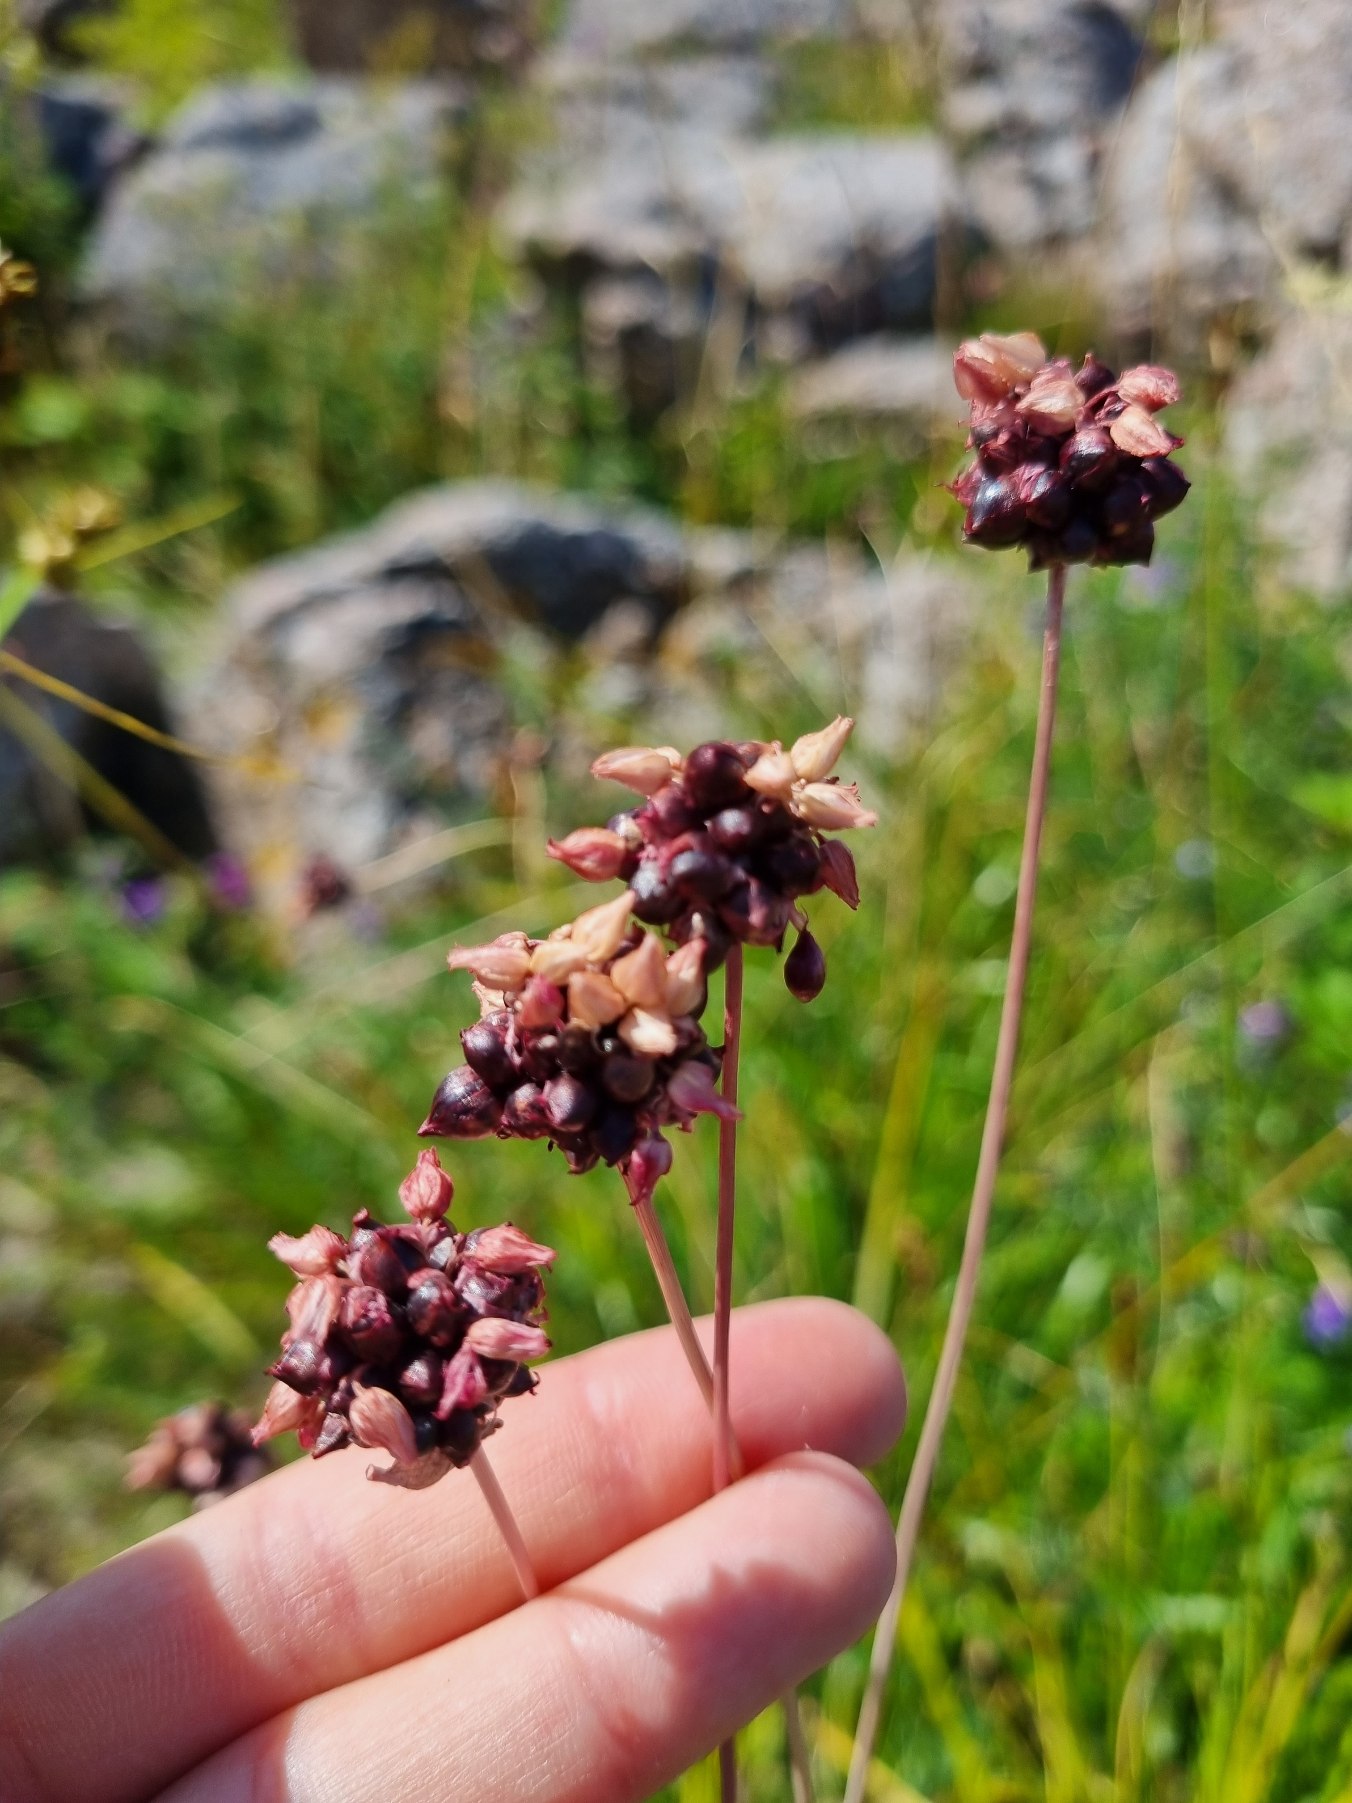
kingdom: Plantae
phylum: Tracheophyta
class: Liliopsida
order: Asparagales
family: Amaryllidaceae
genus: Allium
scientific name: Allium scorodoprasum
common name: Skov-løg
